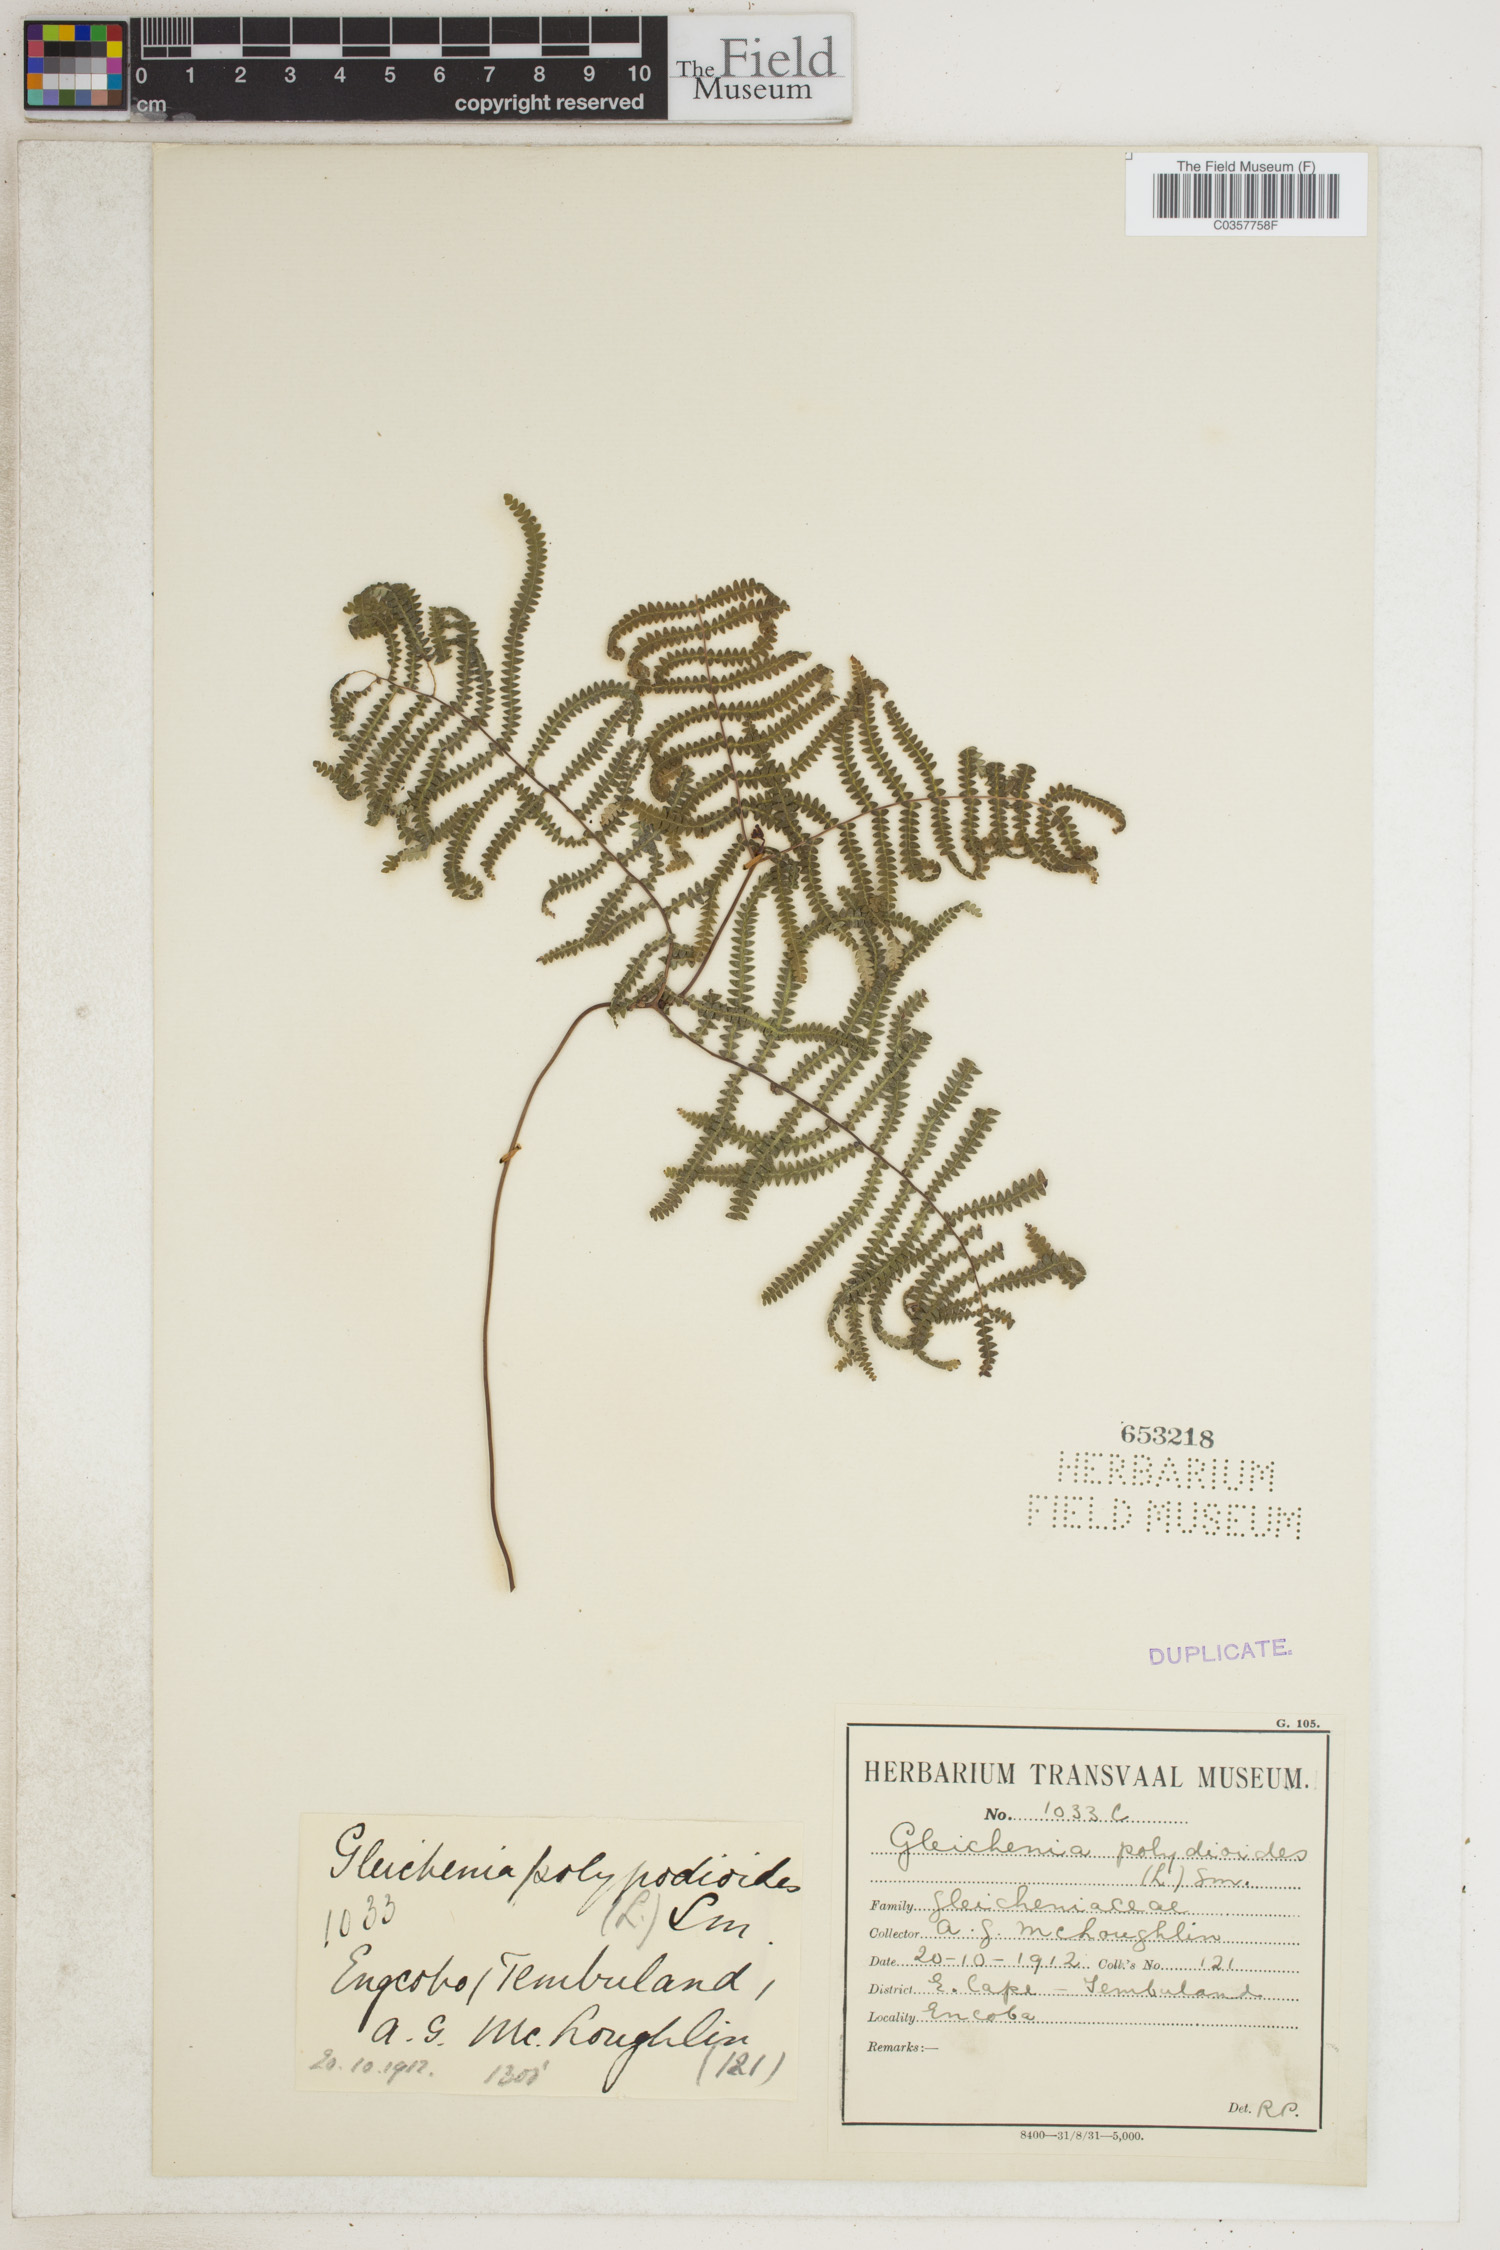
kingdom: Plantae
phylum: Tracheophyta
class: Polypodiopsida
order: Gleicheniales
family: Gleicheniaceae
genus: Gleichenia
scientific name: Gleichenia polypodioides
